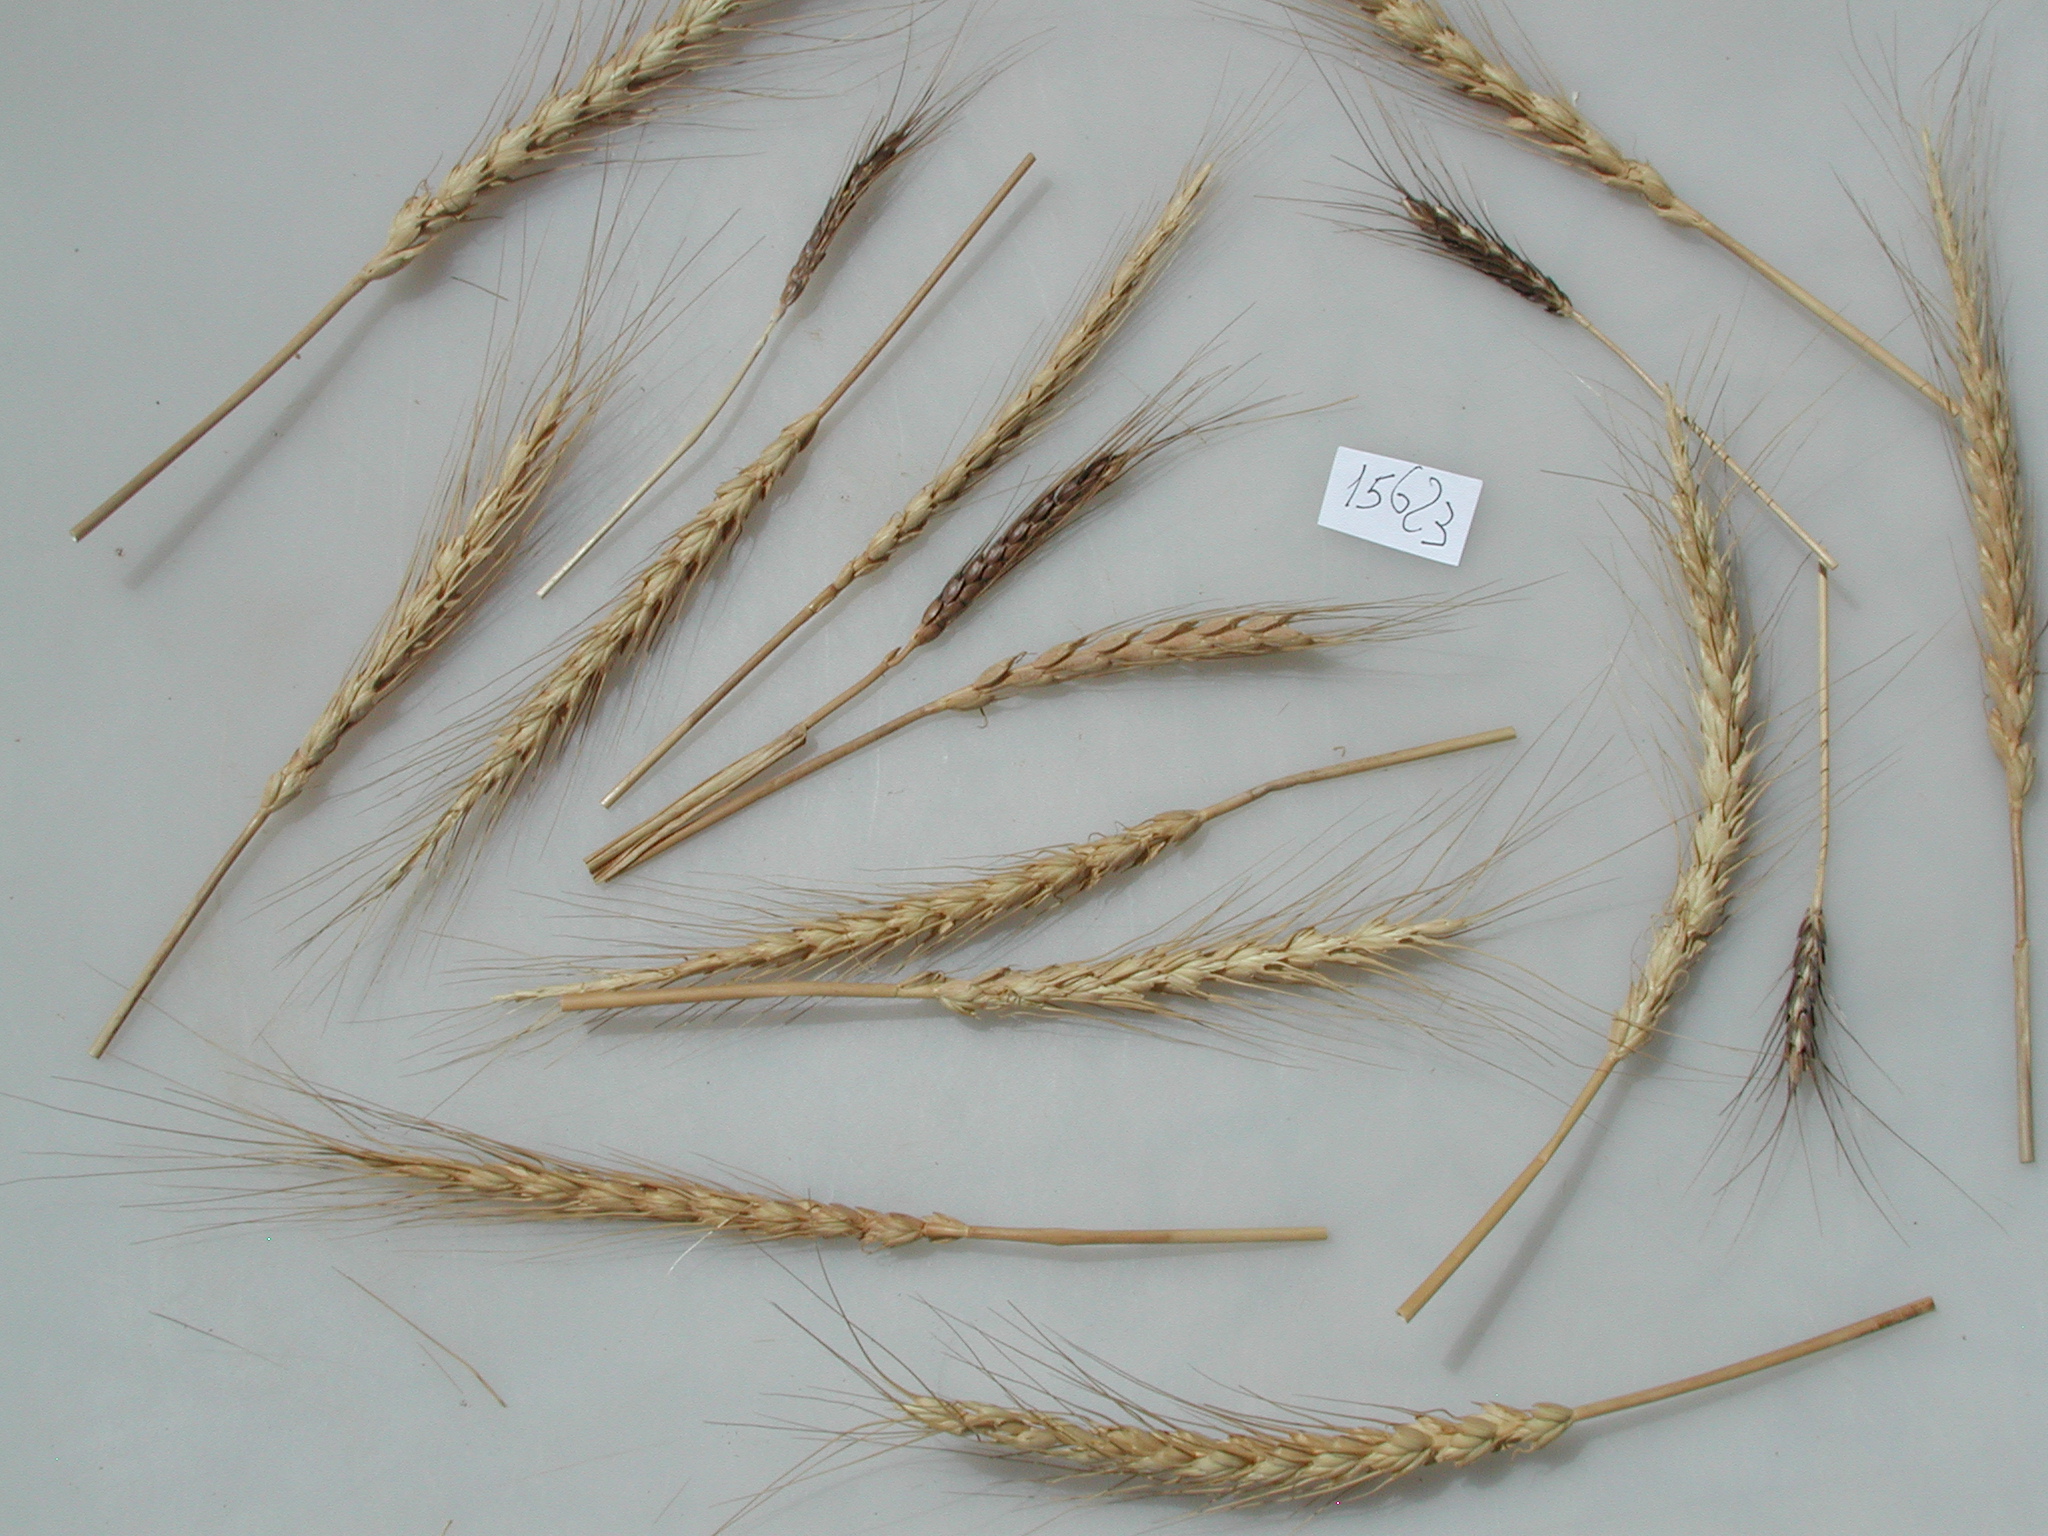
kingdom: Plantae
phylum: Tracheophyta
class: Liliopsida
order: Poales
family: Poaceae
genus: Triticum
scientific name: Triticum aestivum
